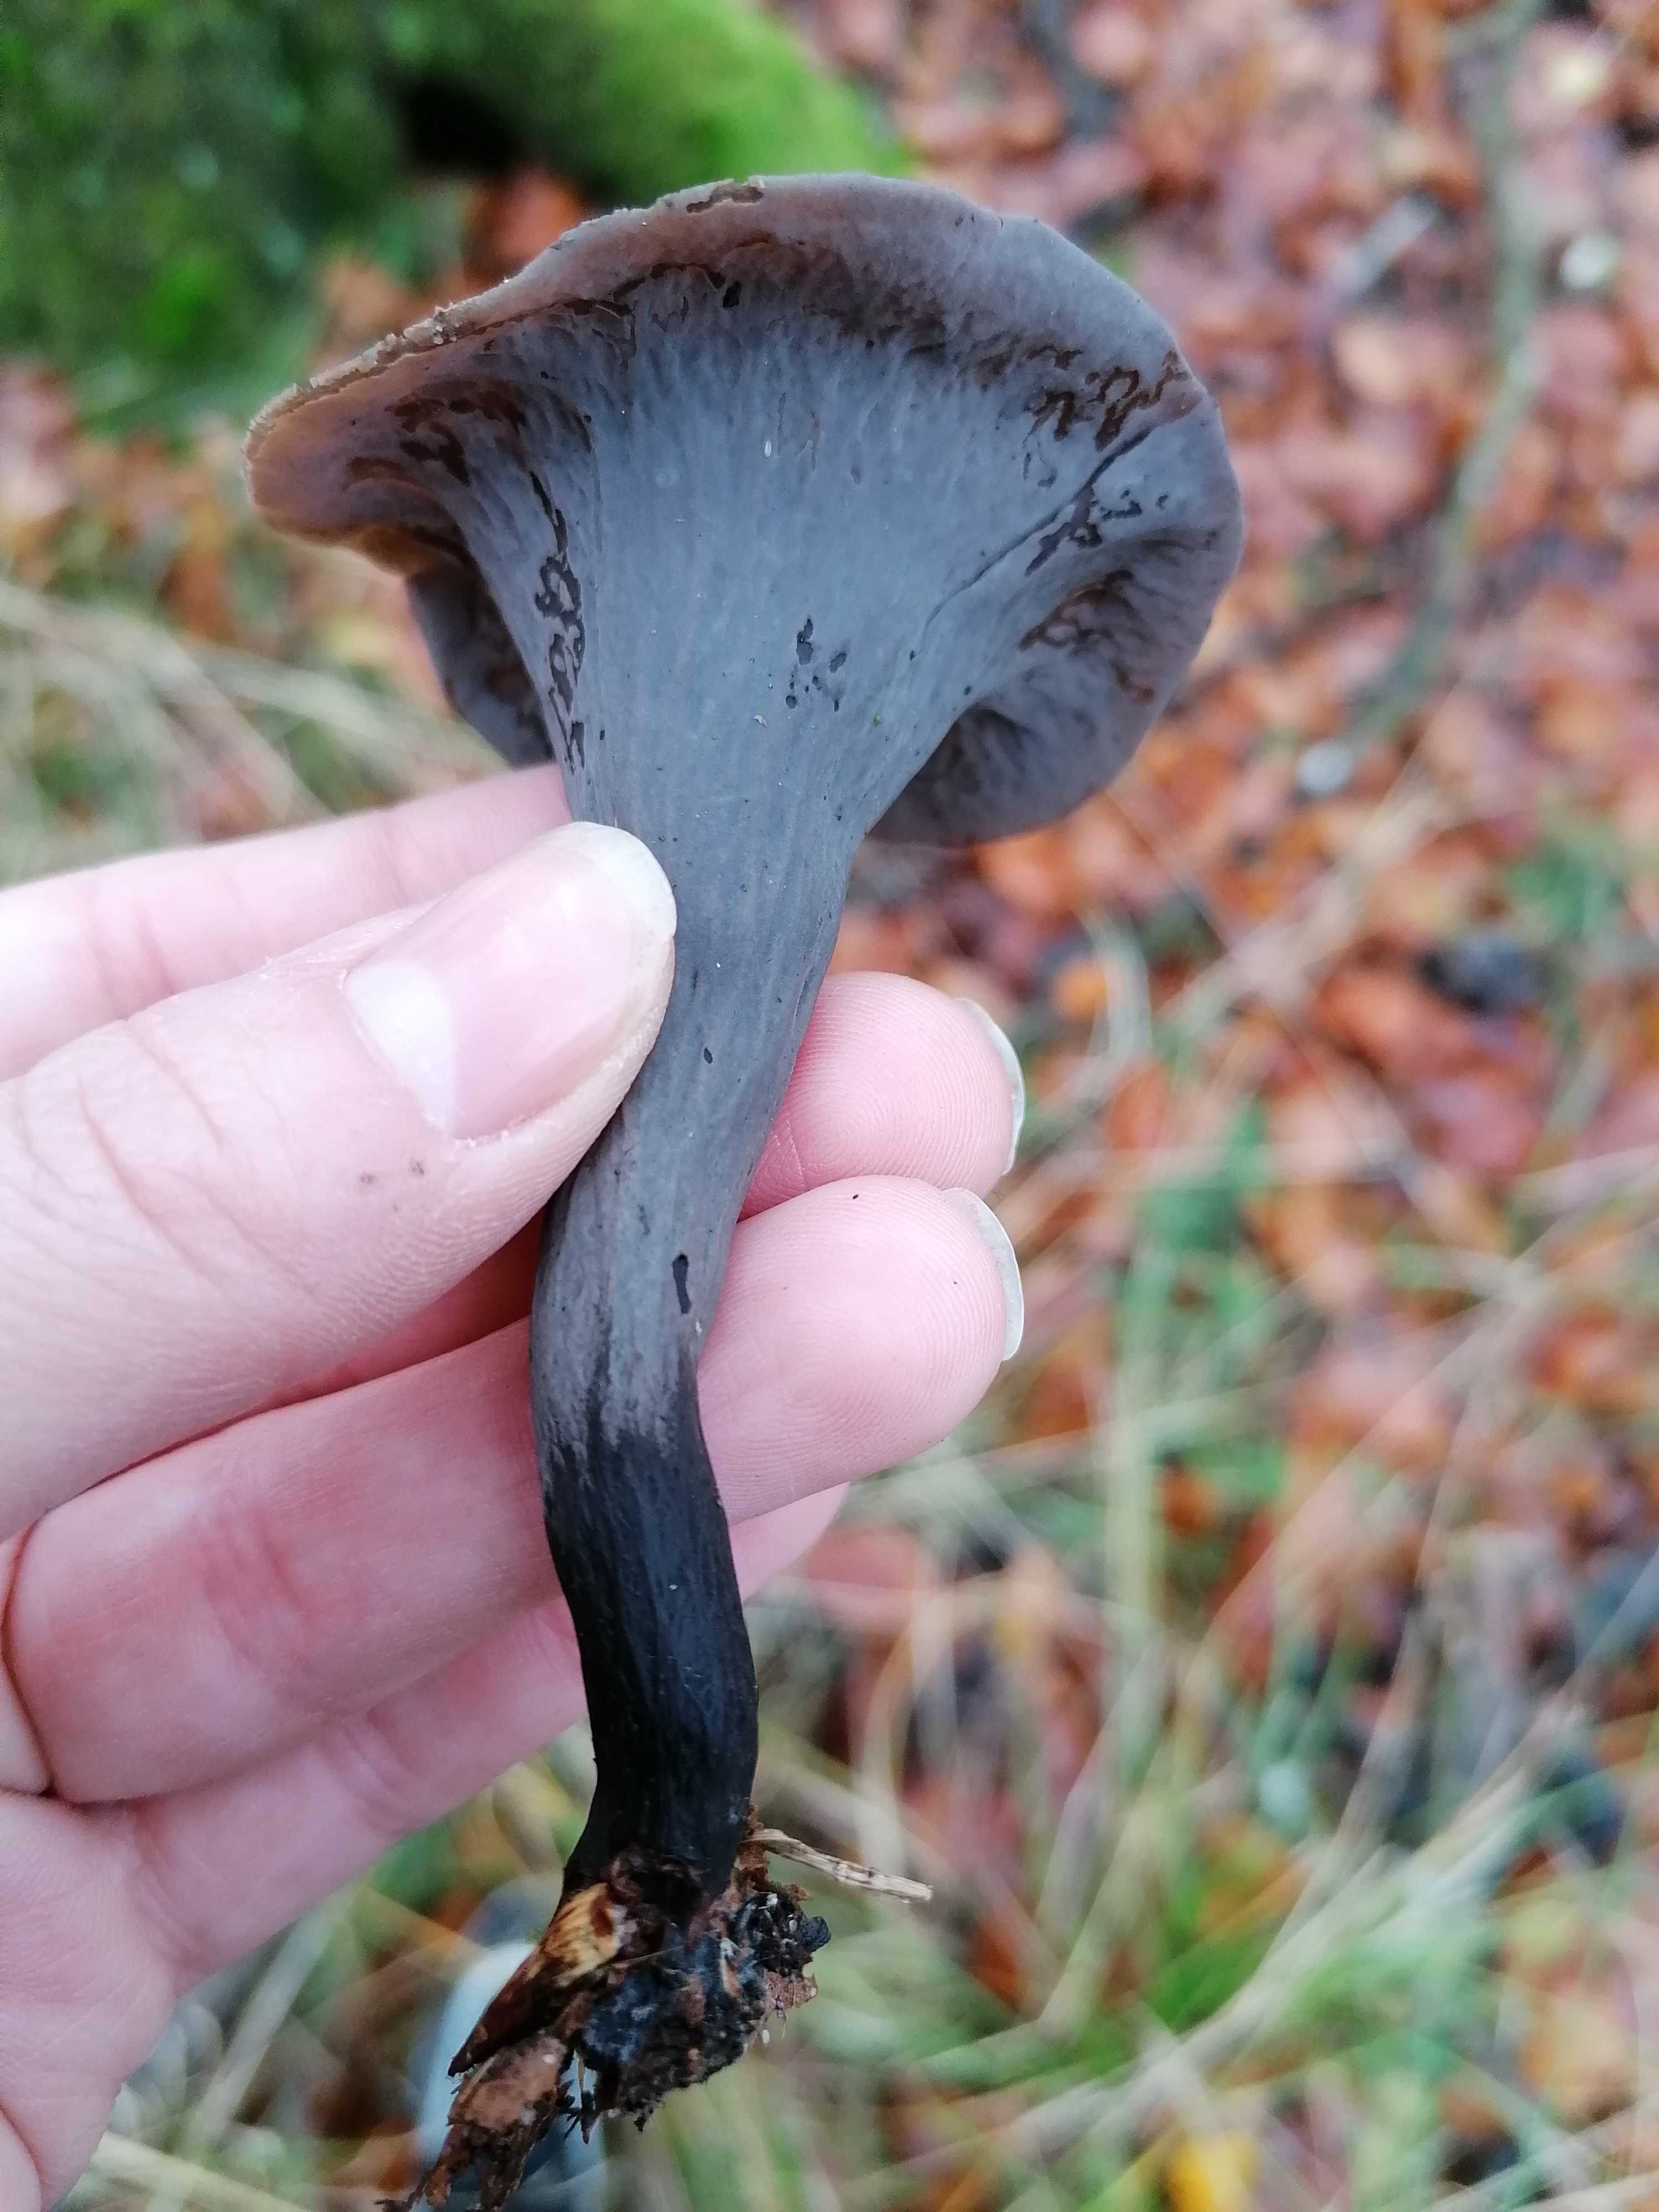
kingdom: Fungi
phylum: Basidiomycota
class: Agaricomycetes
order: Cantharellales
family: Hydnaceae
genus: Craterellus
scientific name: Craterellus cornucopioides
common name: trompetsvamp
